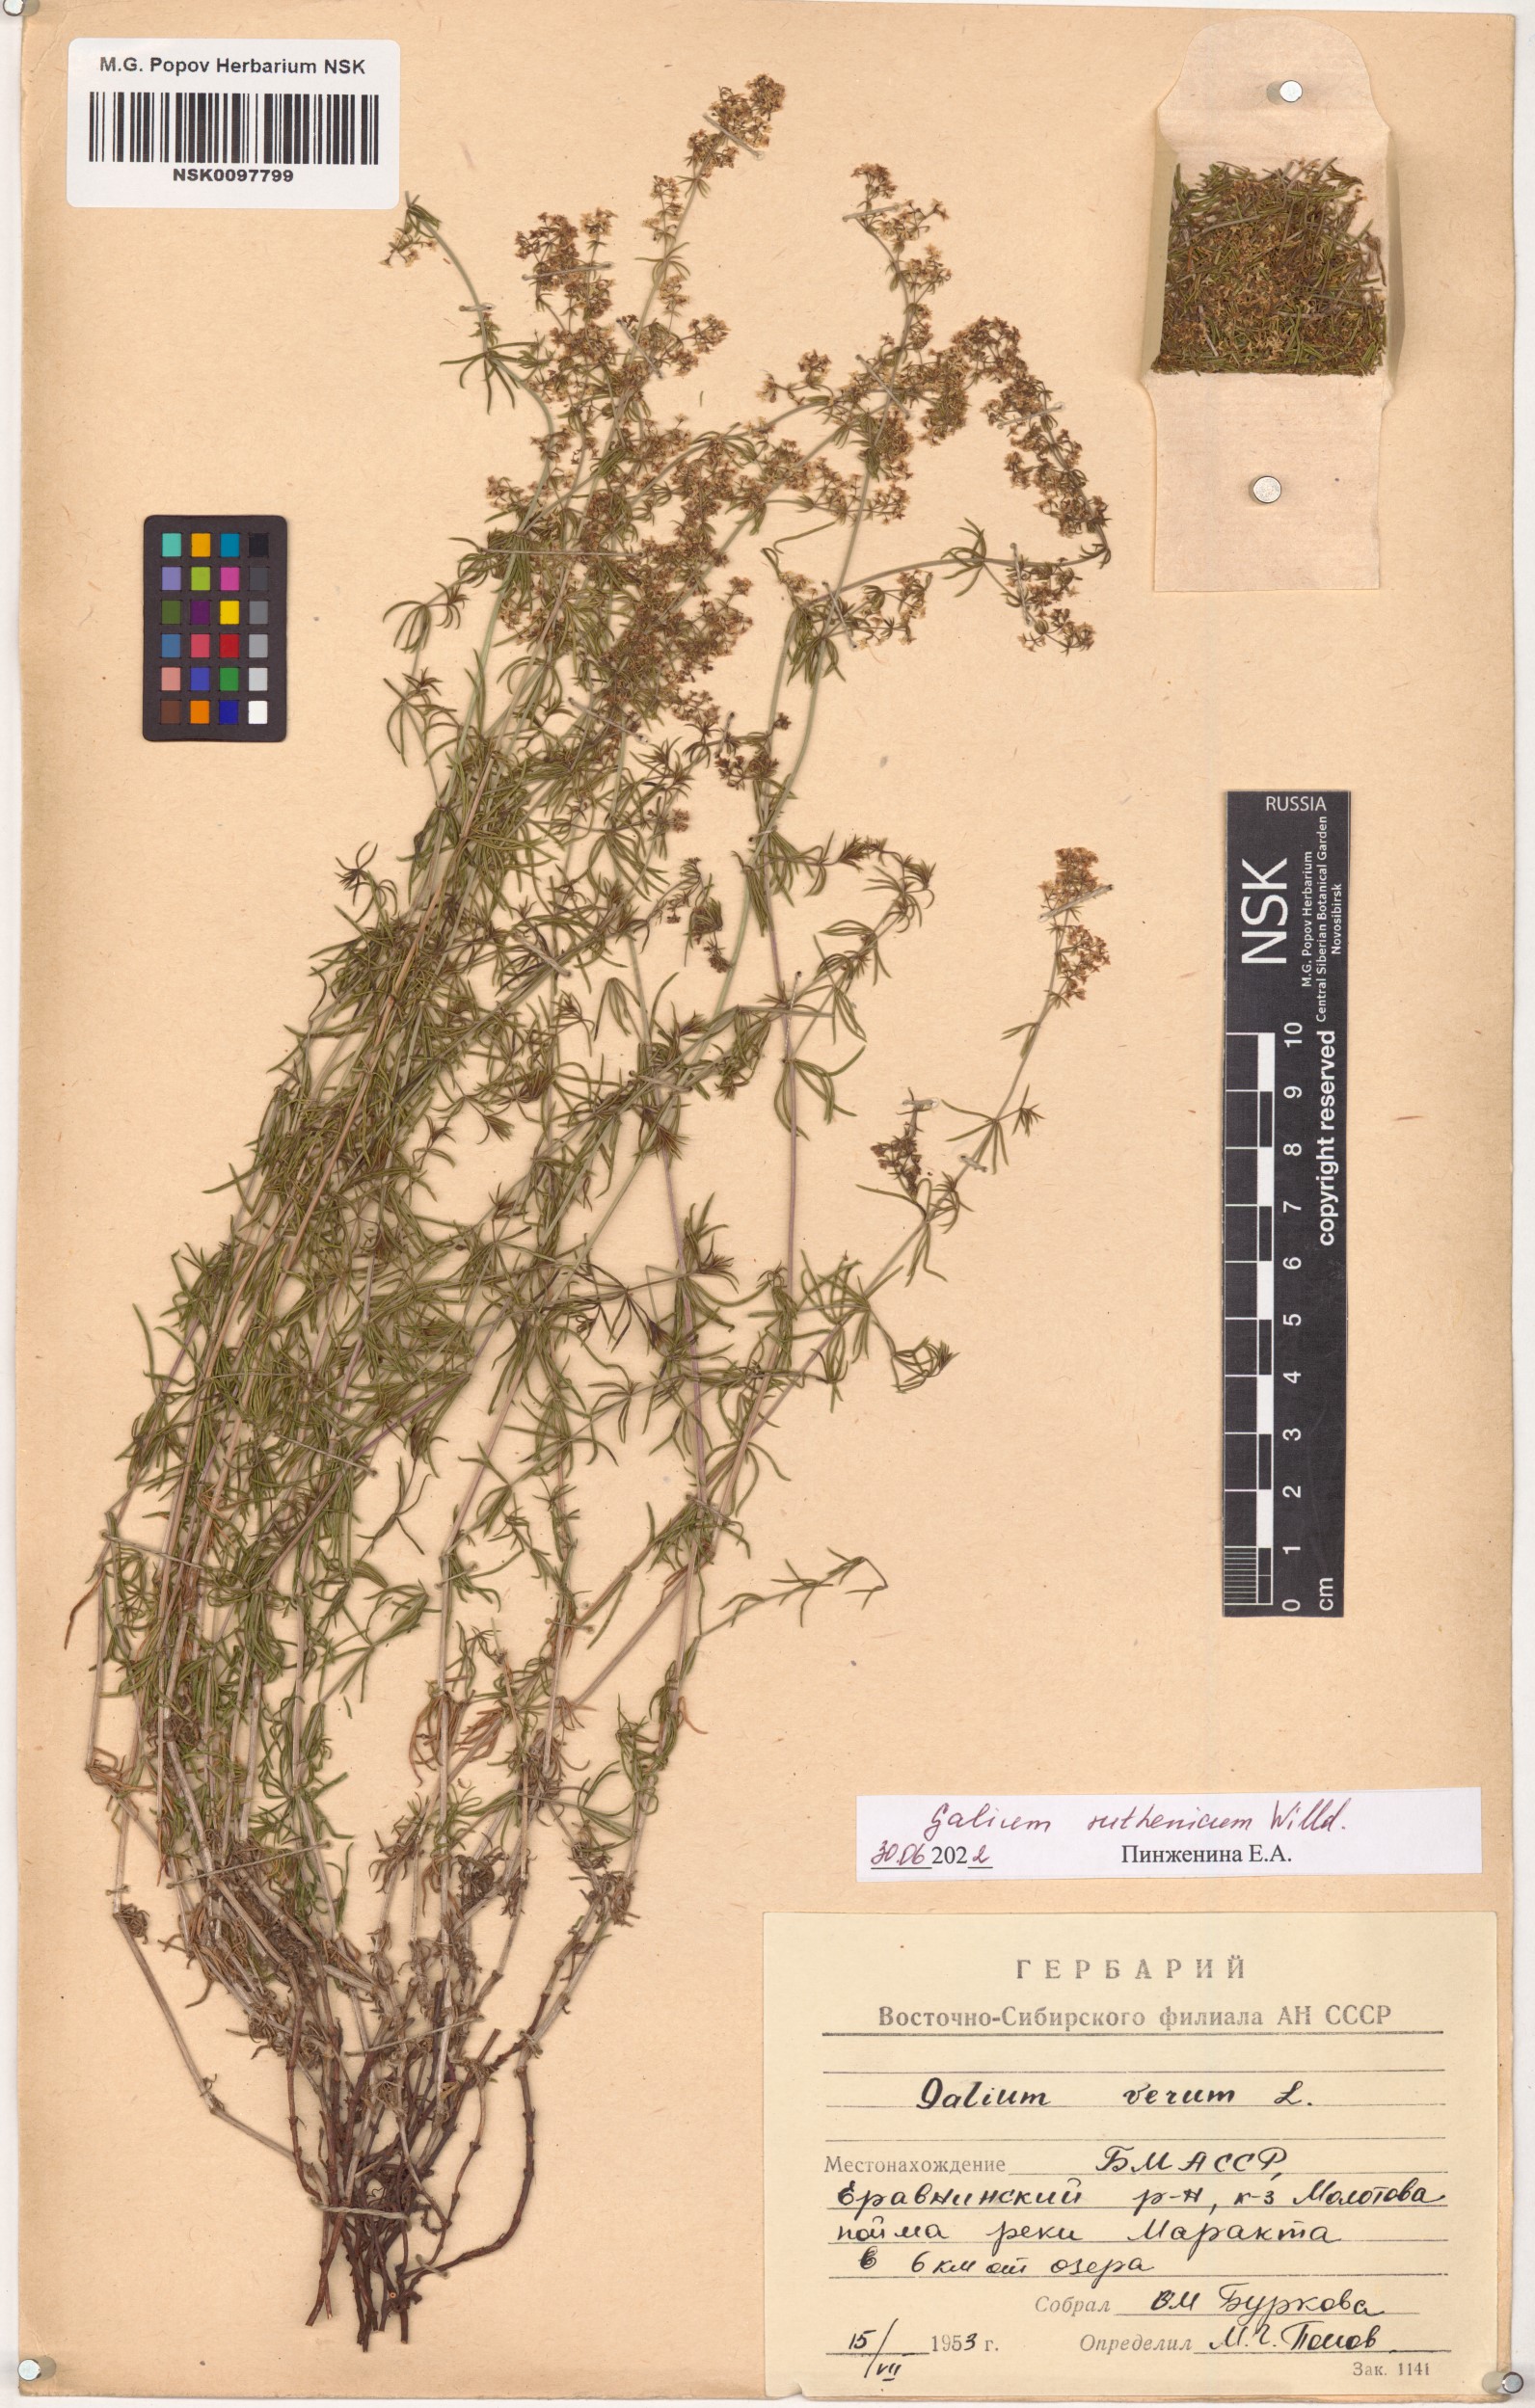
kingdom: Plantae
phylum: Tracheophyta
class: Magnoliopsida
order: Gentianales
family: Rubiaceae
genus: Galium
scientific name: Galium verum
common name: Lady's bedstraw
